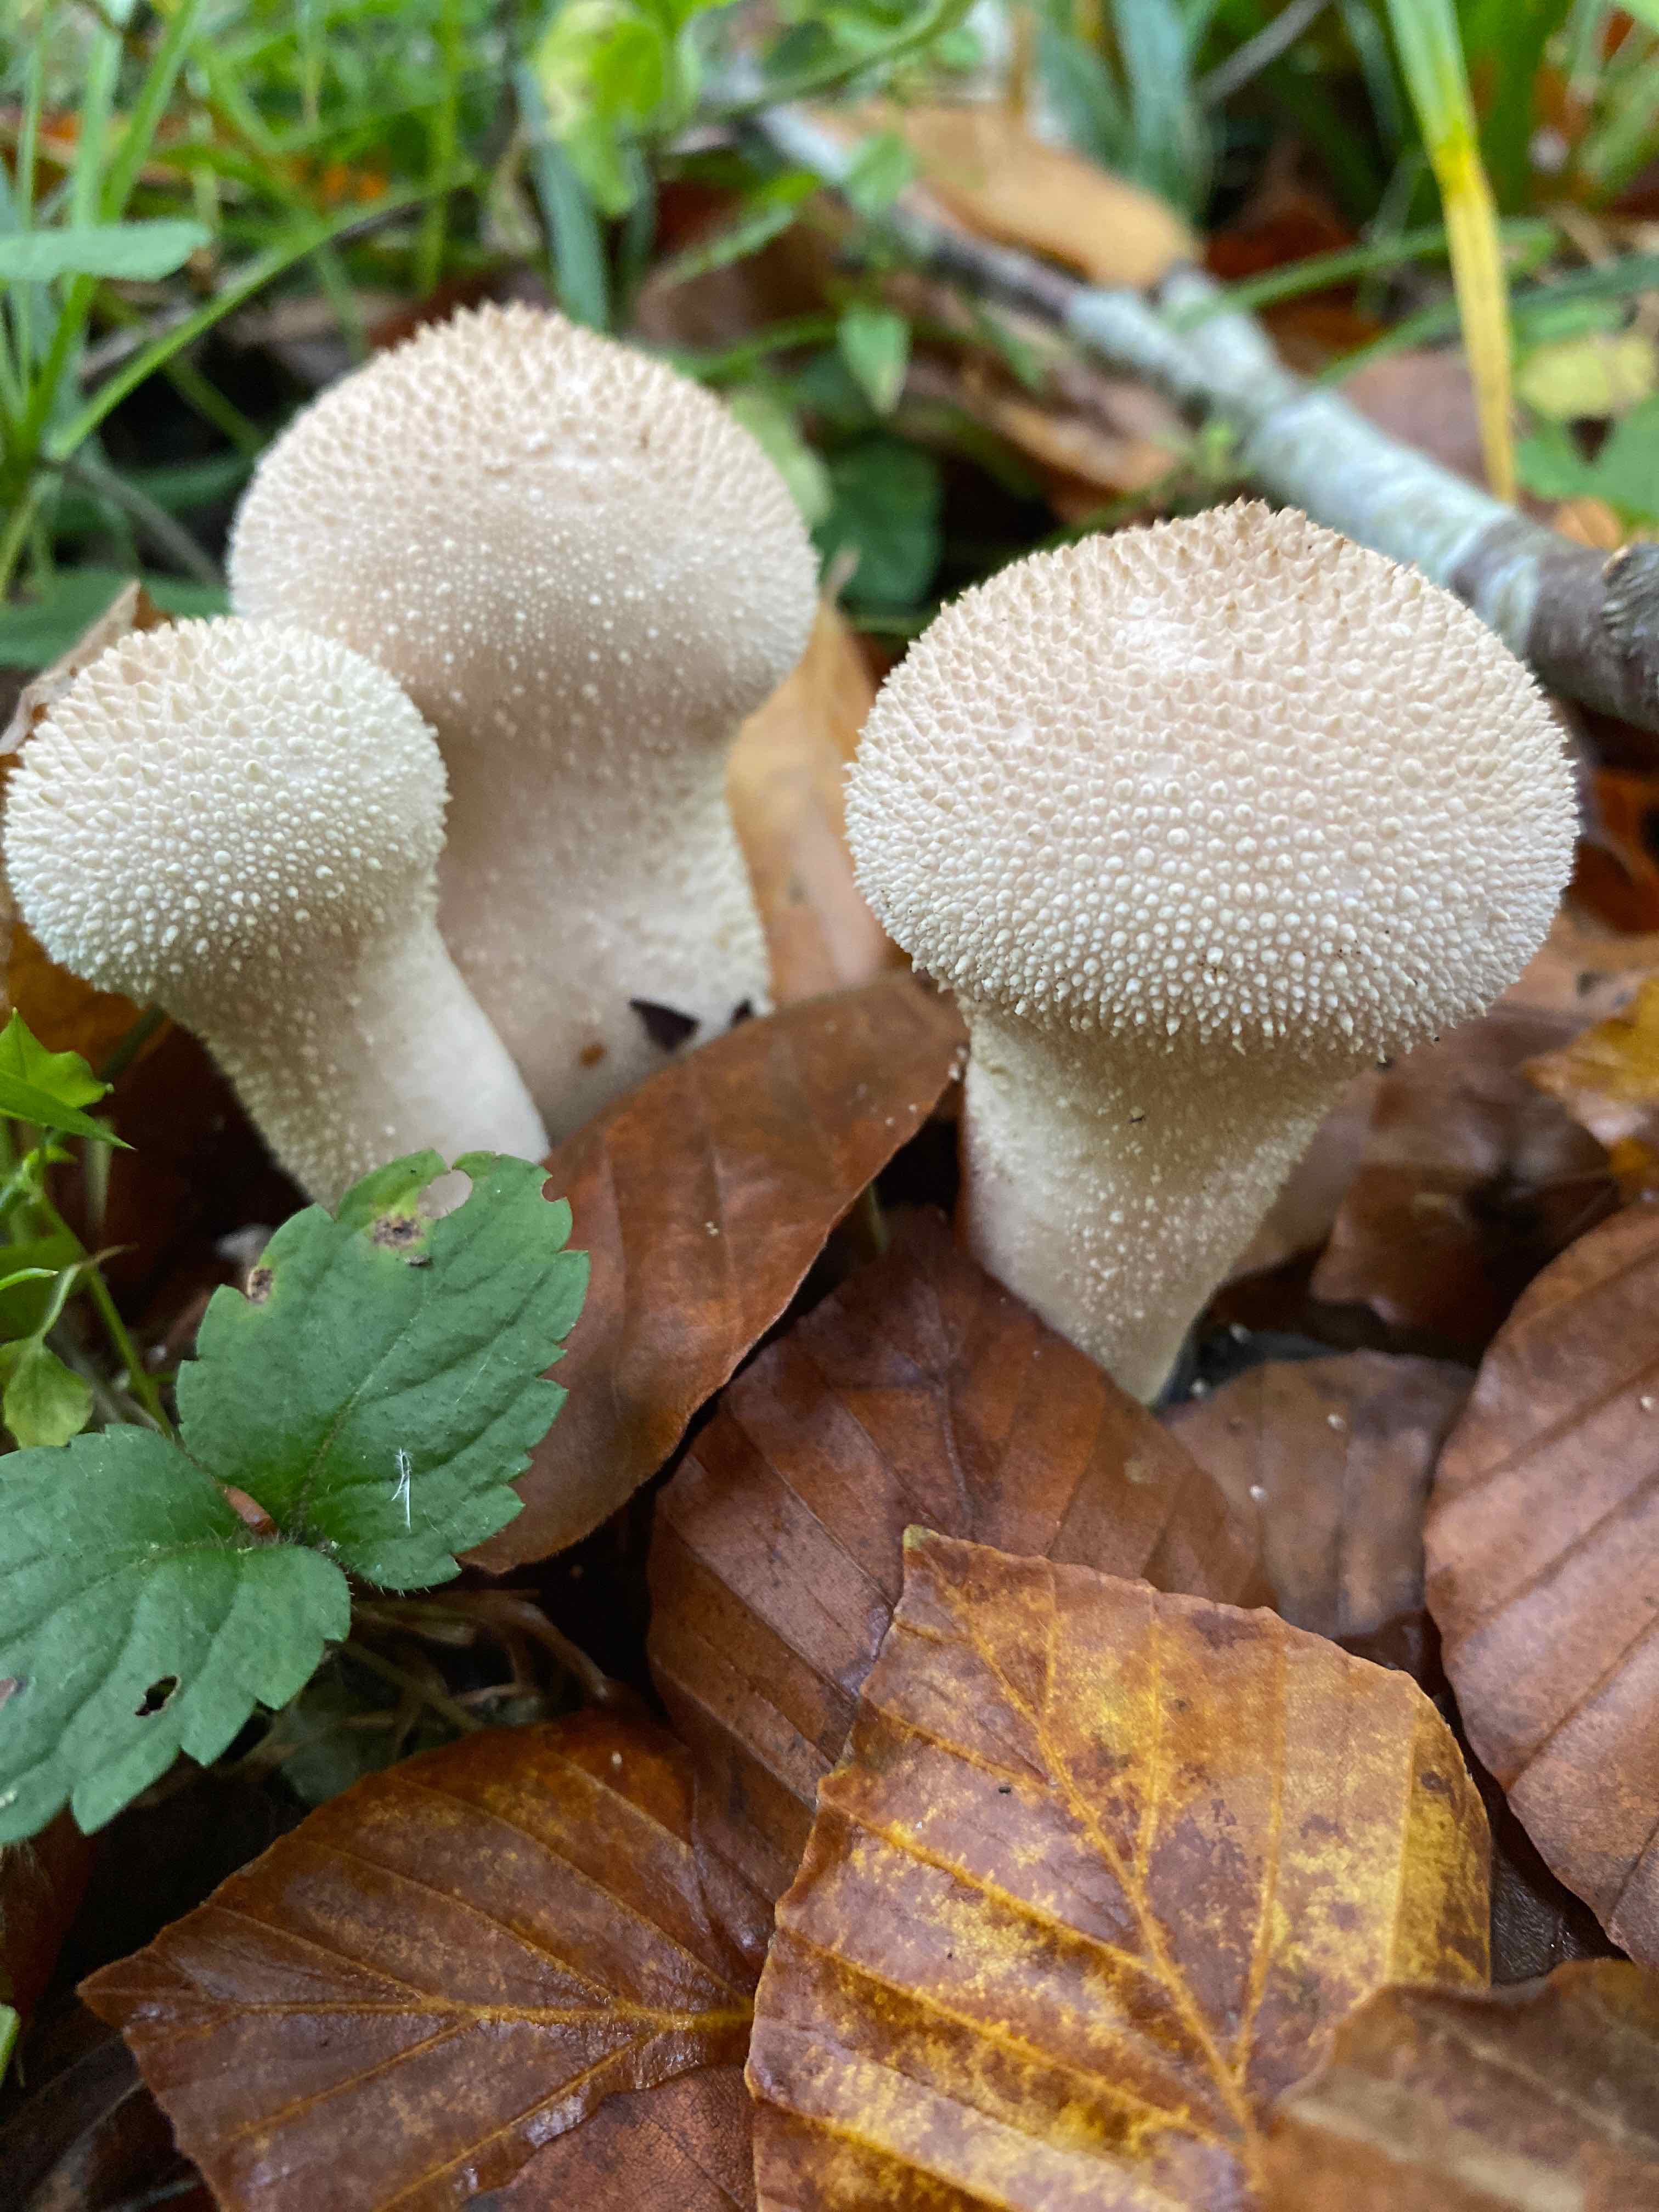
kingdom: Fungi
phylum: Basidiomycota
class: Agaricomycetes
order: Agaricales
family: Lycoperdaceae
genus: Lycoperdon
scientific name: Lycoperdon perlatum
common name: krystal-støvbold
